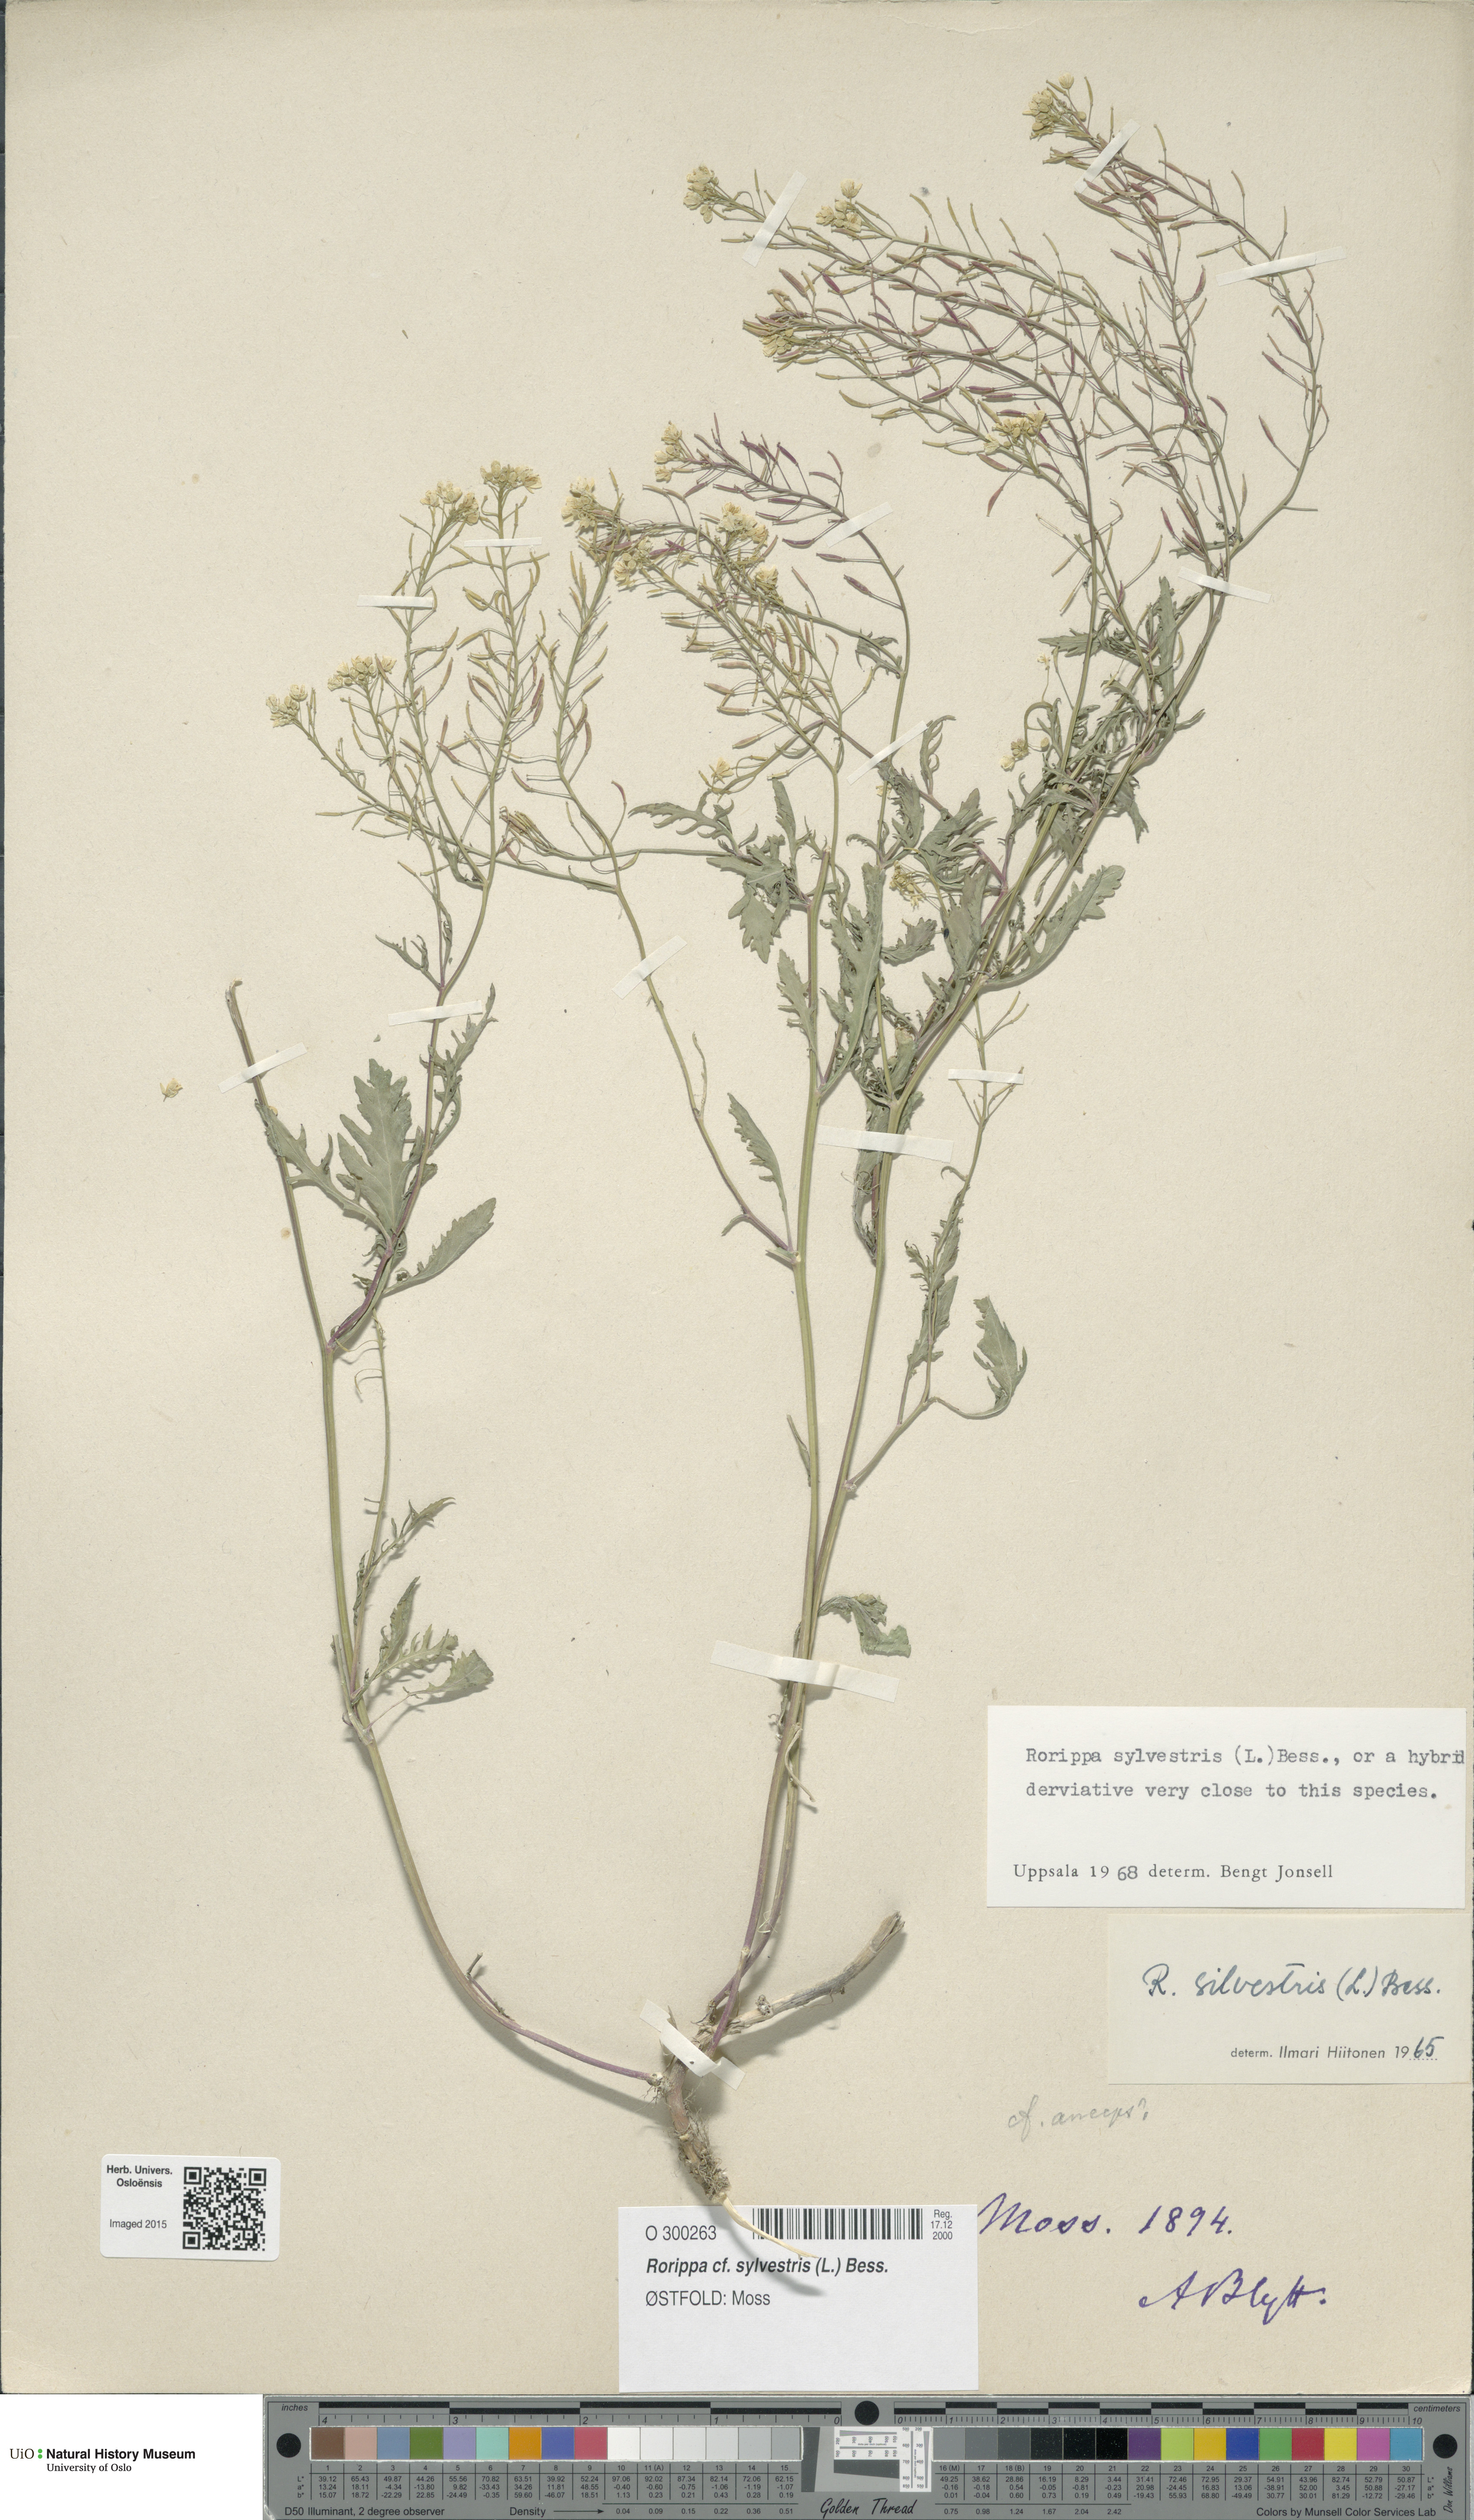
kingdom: Plantae
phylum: Tracheophyta
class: Magnoliopsida
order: Brassicales
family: Brassicaceae
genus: Rorippa
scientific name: Rorippa sylvestris
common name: Creeping yellowcress
